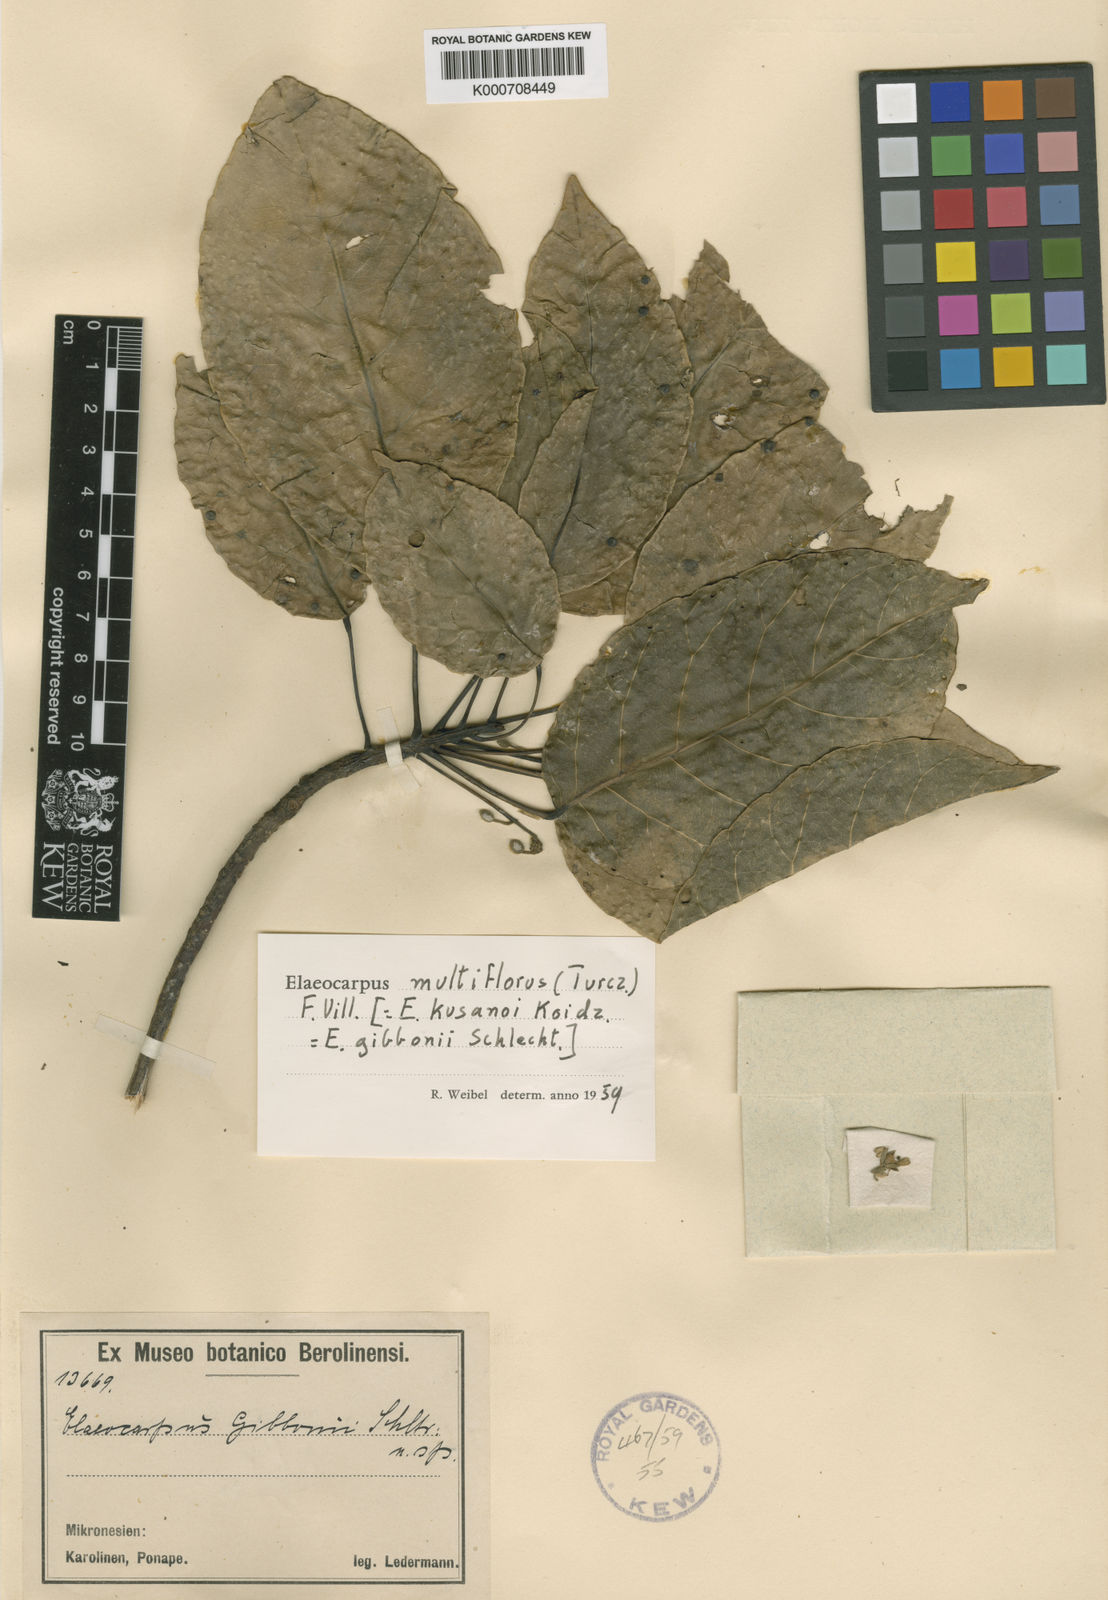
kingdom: Plantae
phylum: Tracheophyta
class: Magnoliopsida
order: Oxalidales
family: Elaeocarpaceae
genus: Elaeocarpus
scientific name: Elaeocarpus multiflorus
